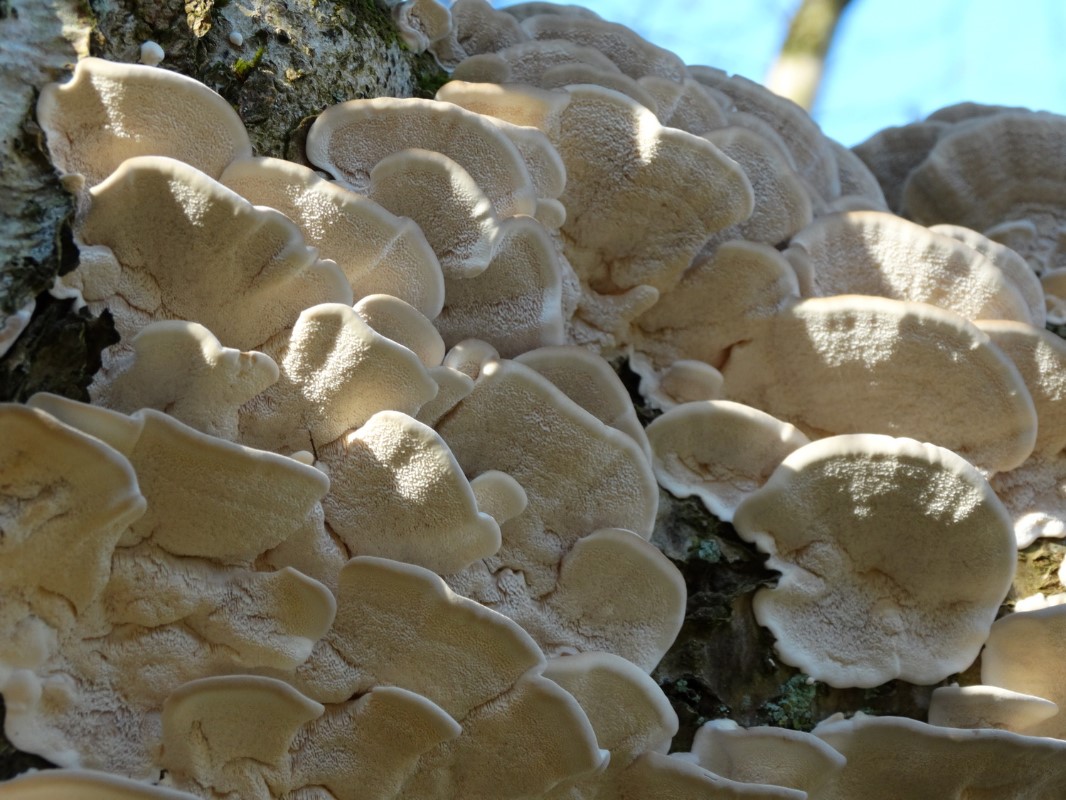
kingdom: Fungi
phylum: Basidiomycota
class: Agaricomycetes
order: Polyporales
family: Polyporaceae
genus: Trametes
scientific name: Trametes versicolor
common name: broget læderporesvamp
